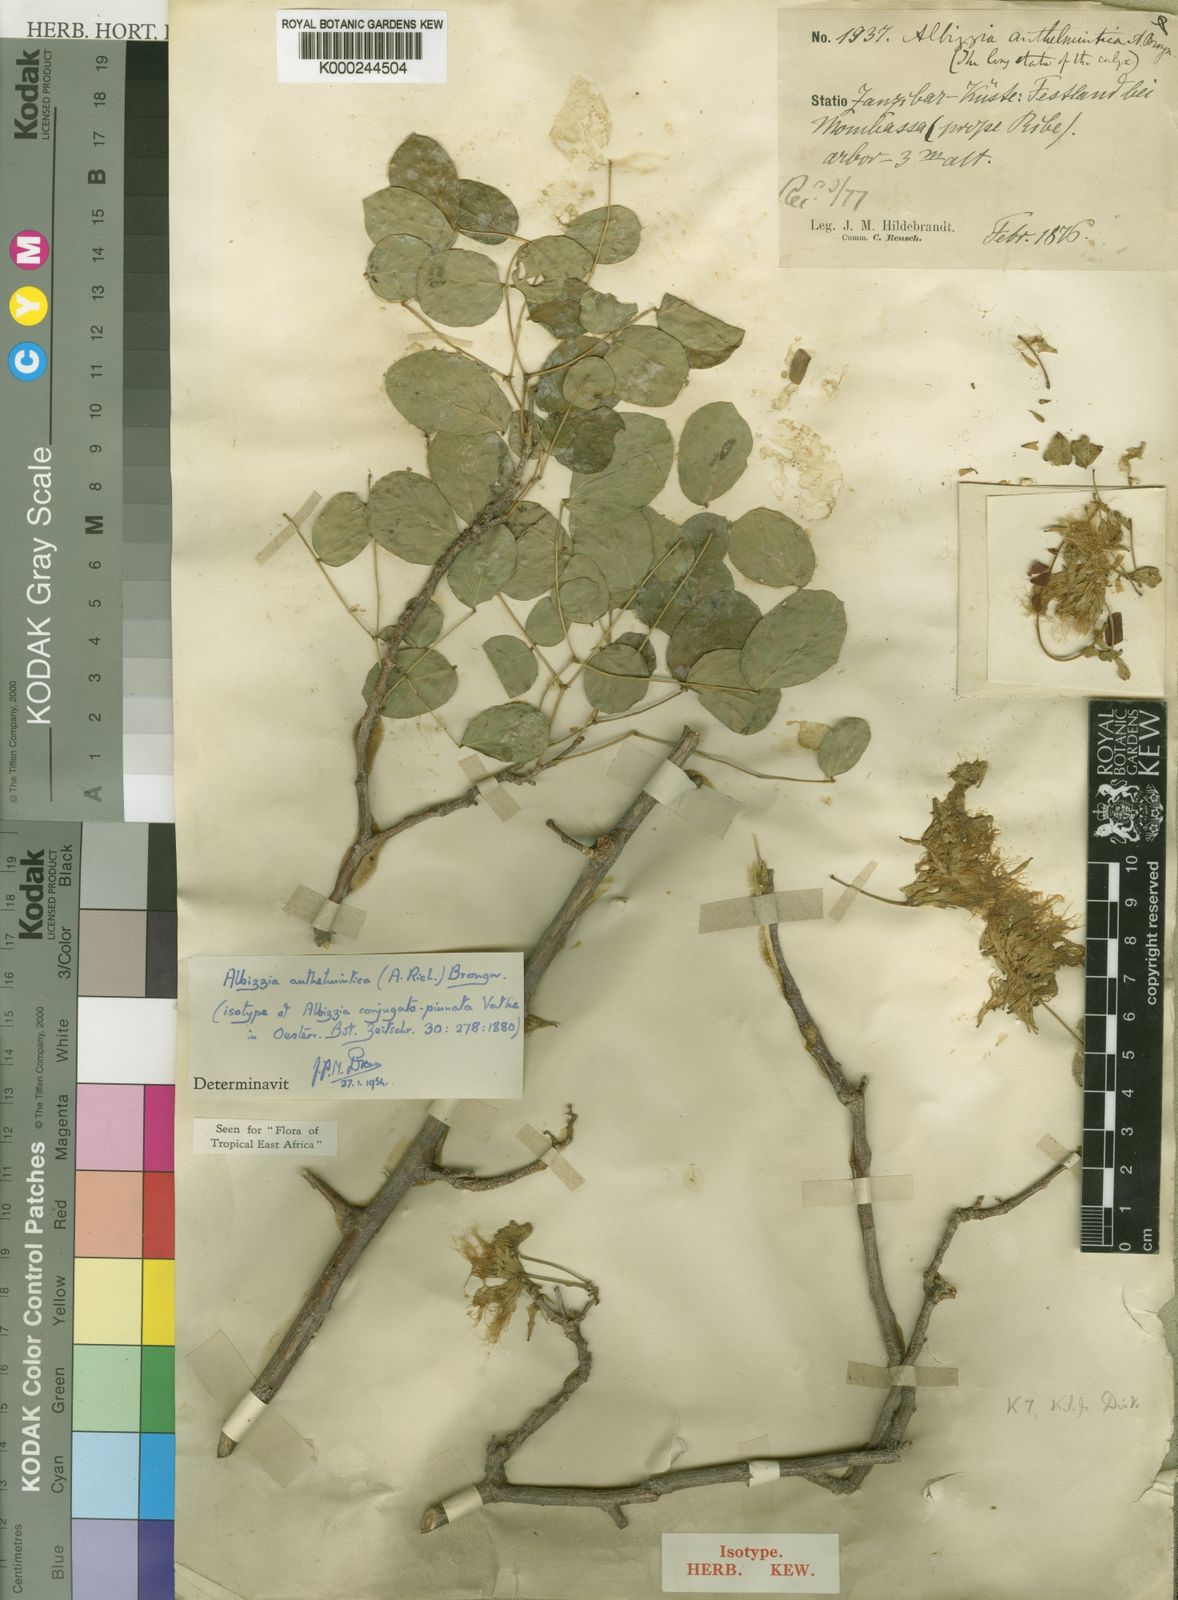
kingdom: Plantae
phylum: Tracheophyta
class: Magnoliopsida
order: Fabales
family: Fabaceae
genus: Albizia
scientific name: Albizia anthelmintica
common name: Worm-bark false-thorn
